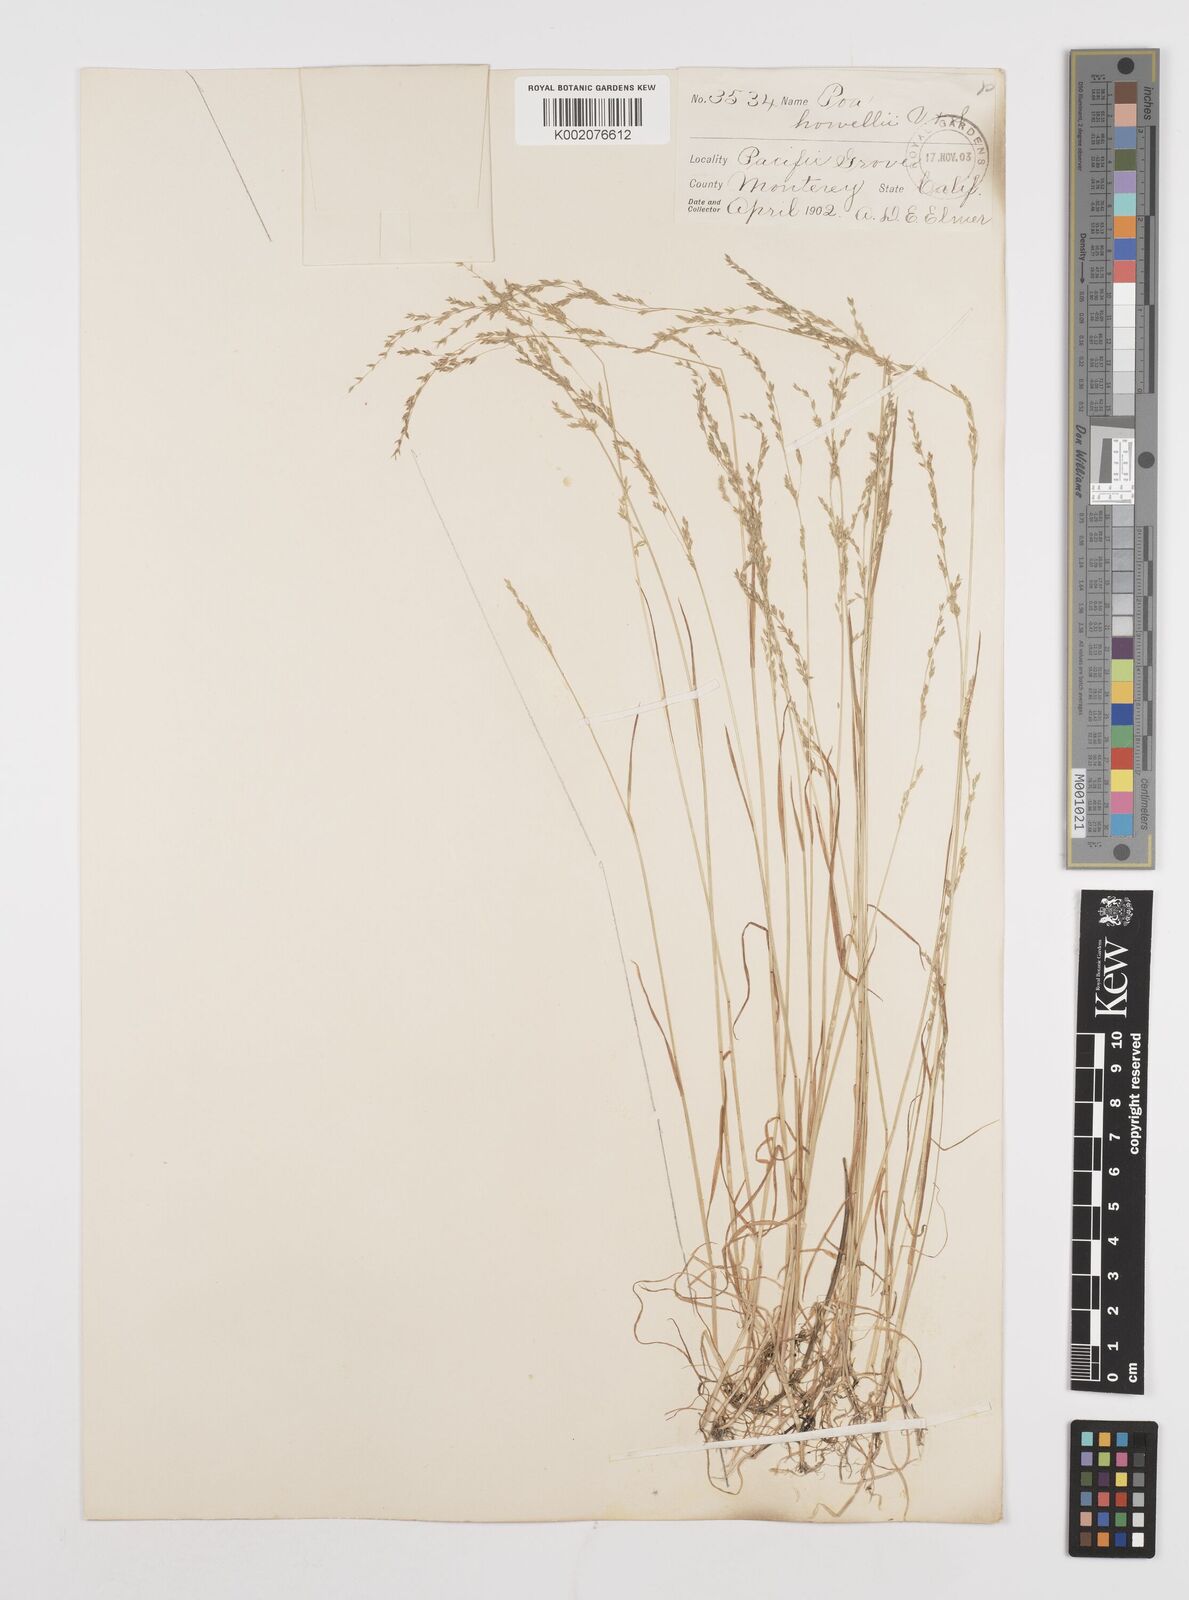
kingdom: Plantae
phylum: Tracheophyta
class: Liliopsida
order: Poales
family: Poaceae
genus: Poa
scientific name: Poa howellii
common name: Howell's bluegrass
